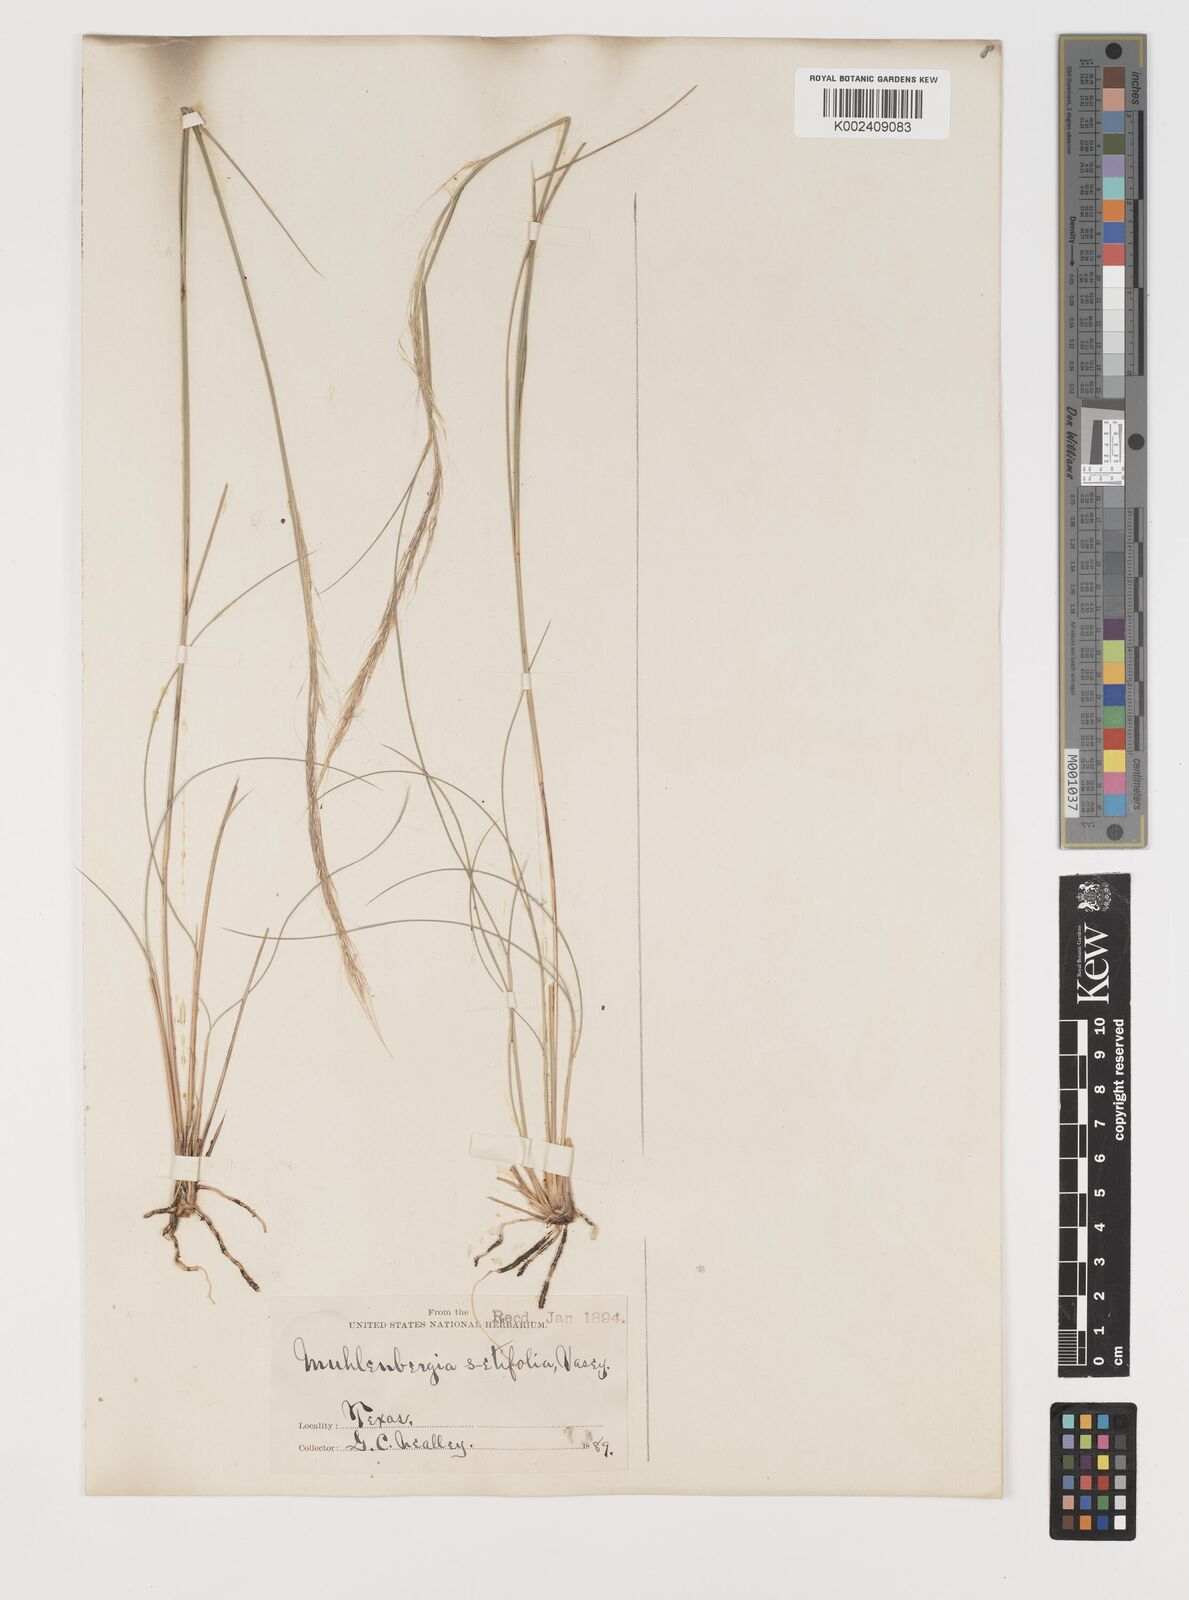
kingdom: Plantae
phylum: Tracheophyta
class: Liliopsida
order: Poales
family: Poaceae
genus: Muhlenbergia
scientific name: Muhlenbergia setifolia
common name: Curly-leaf muhly
